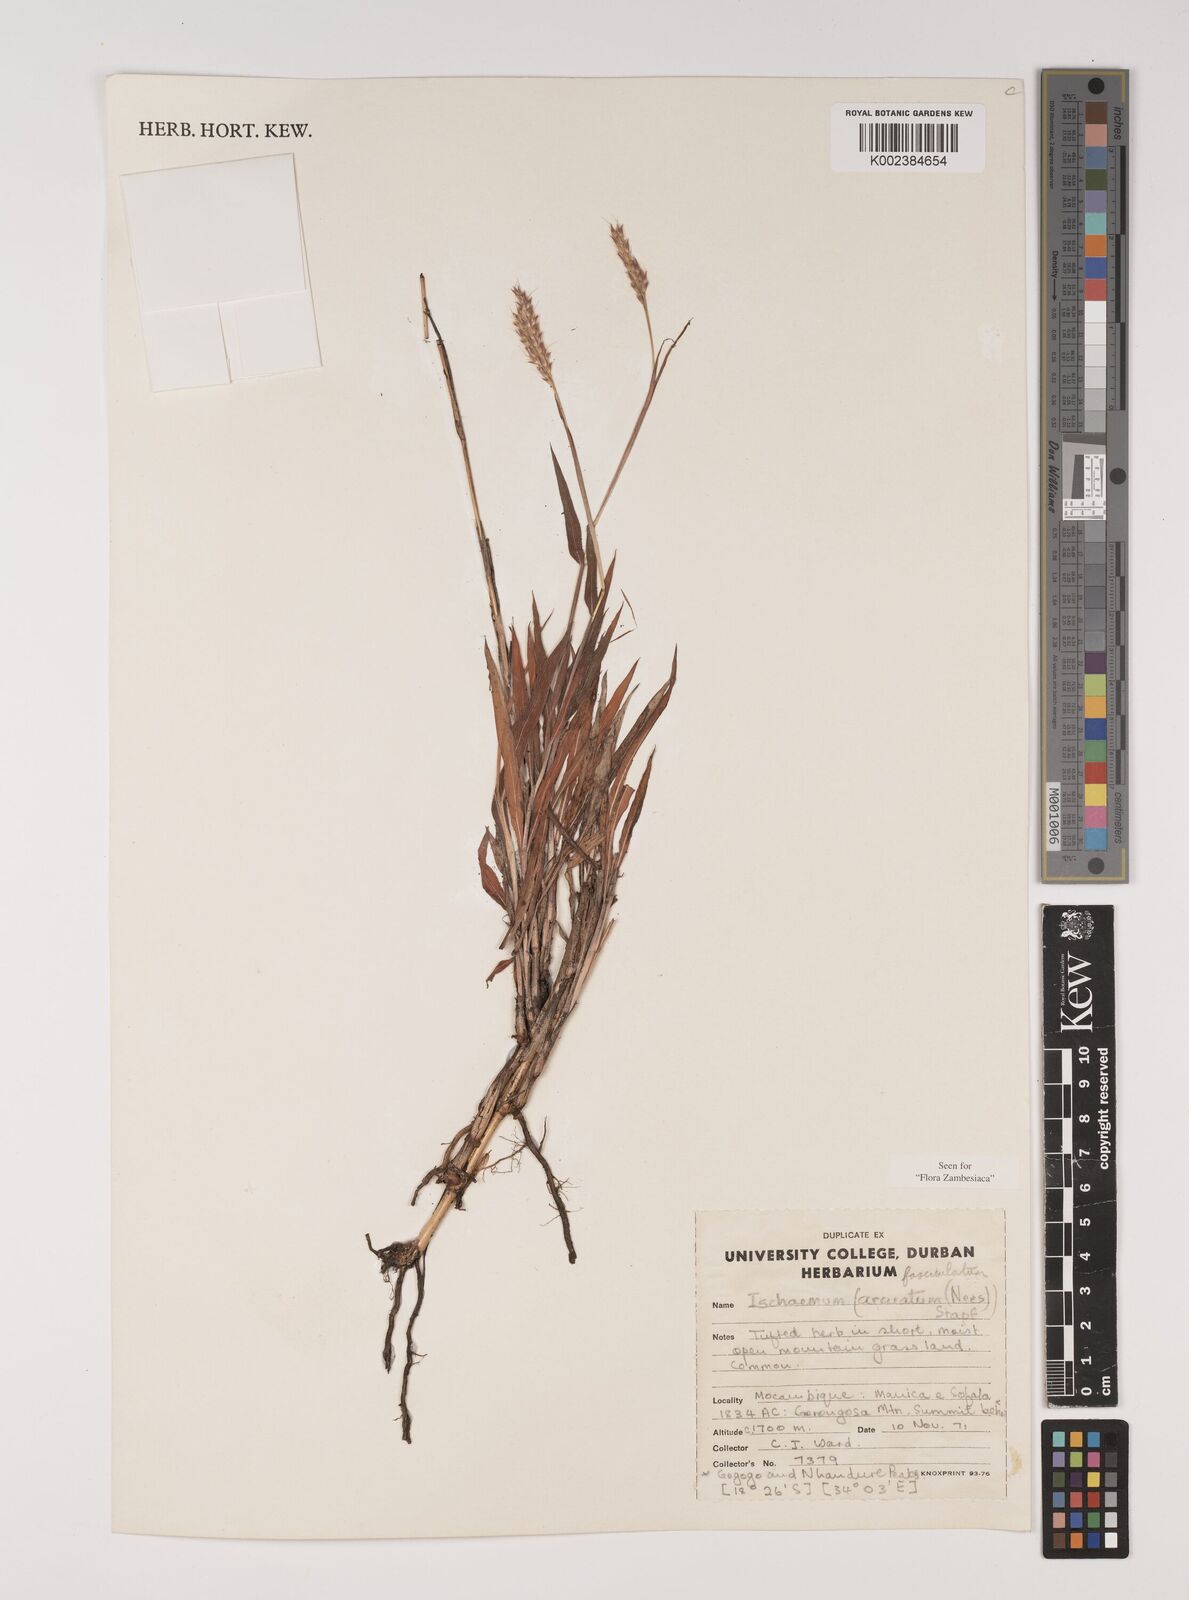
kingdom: Plantae
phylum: Tracheophyta
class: Liliopsida
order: Poales
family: Poaceae
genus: Ischaemum
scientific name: Ischaemum
